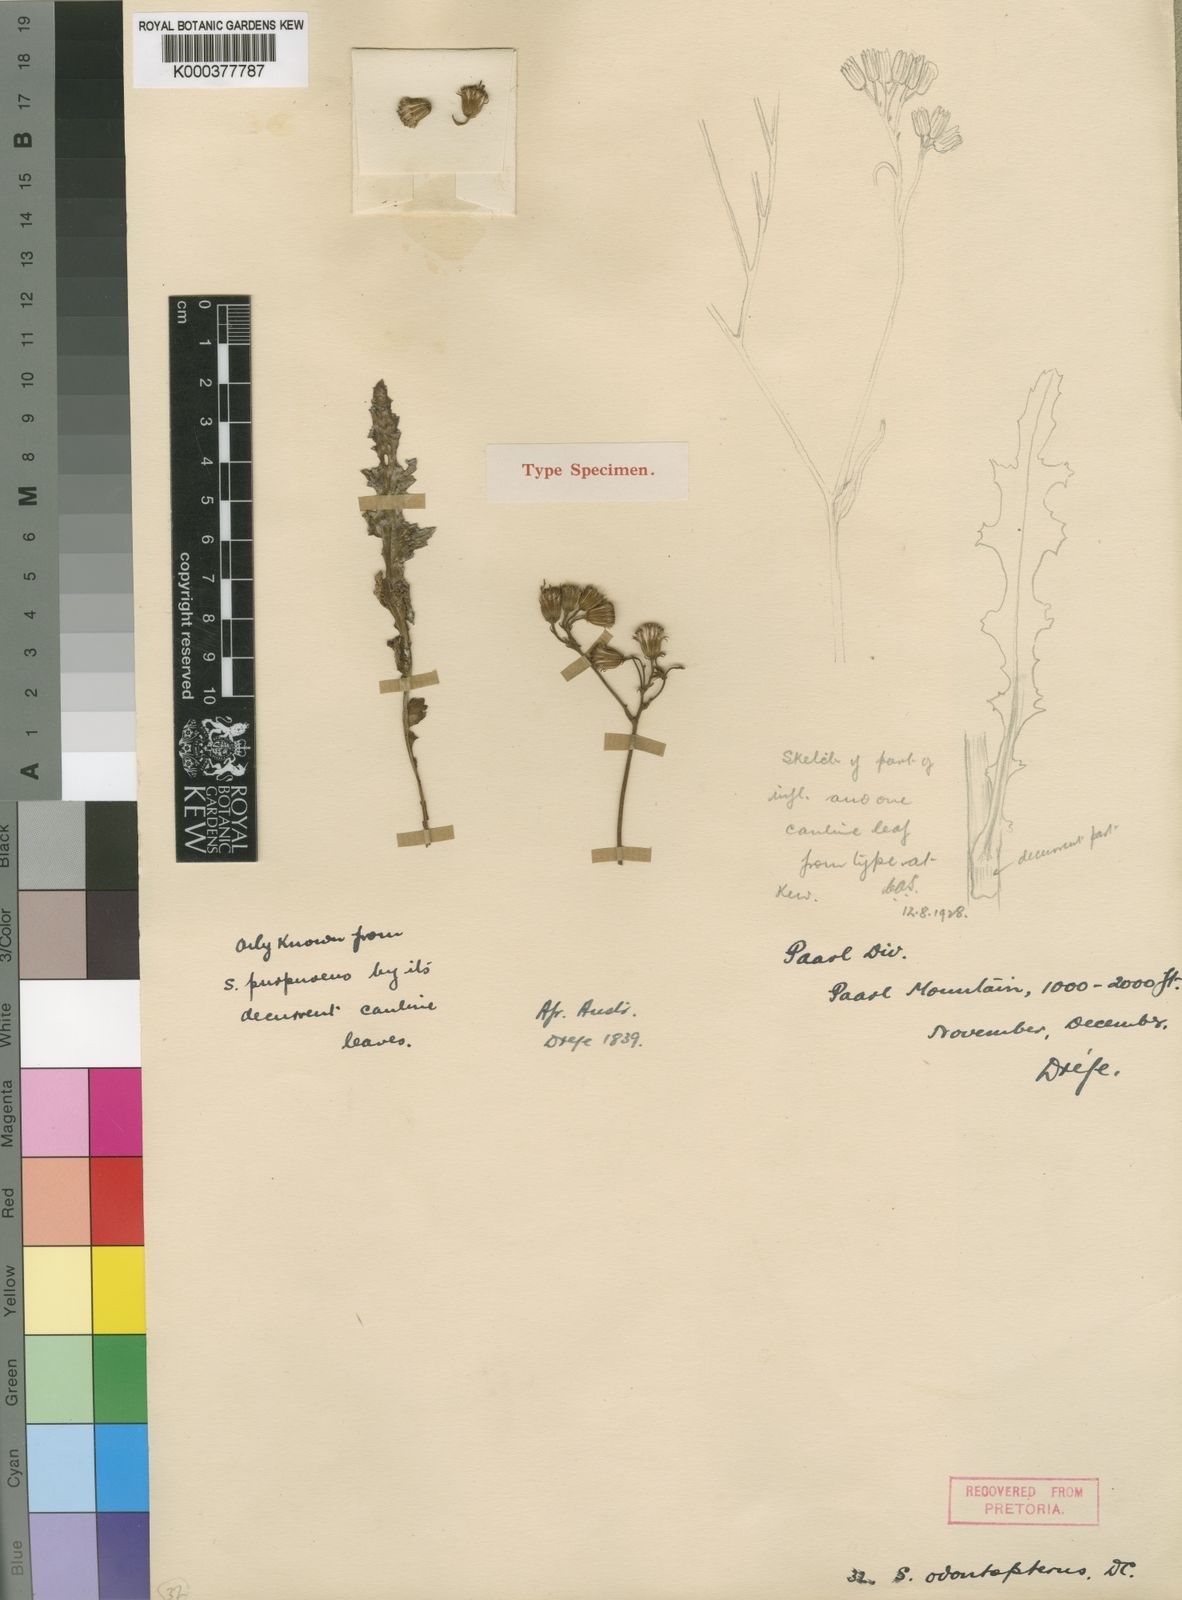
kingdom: Plantae
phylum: Tracheophyta
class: Magnoliopsida
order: Asterales
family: Asteraceae
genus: Senecio
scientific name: Senecio odontopterus
